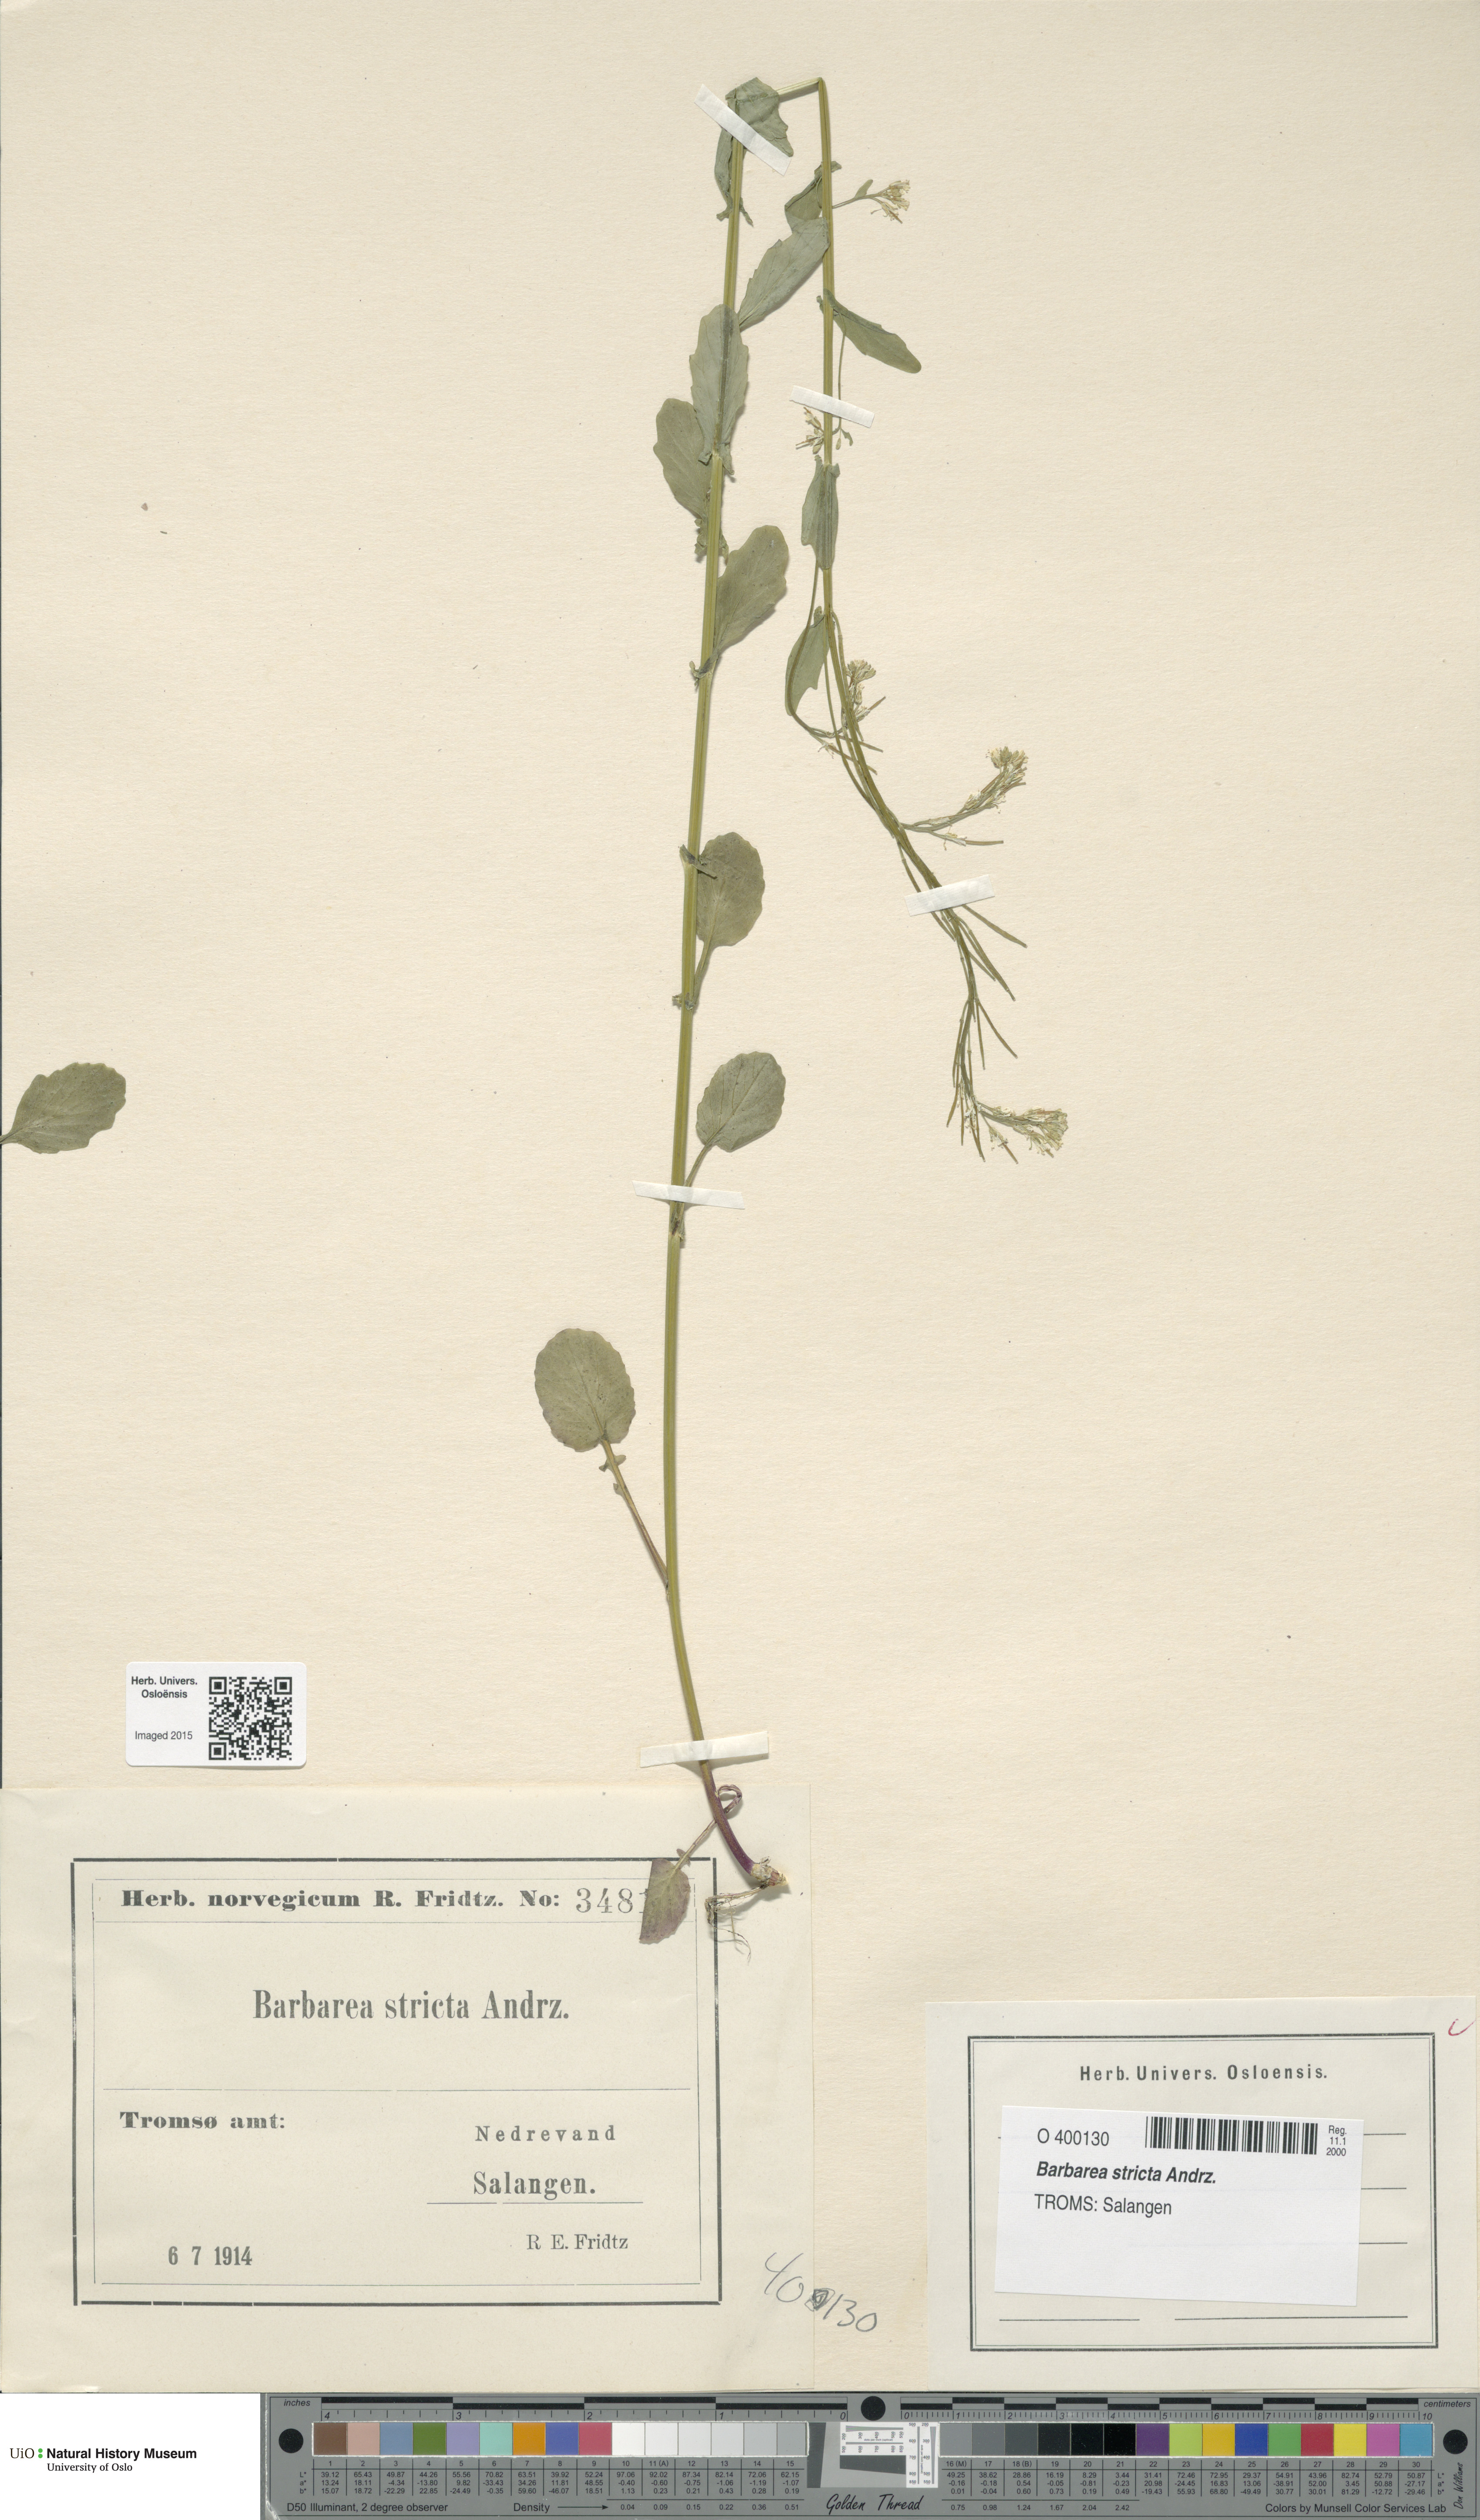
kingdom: Plantae
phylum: Tracheophyta
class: Magnoliopsida
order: Brassicales
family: Brassicaceae
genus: Barbarea
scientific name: Barbarea stricta
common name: Small-flowered winter-cress
